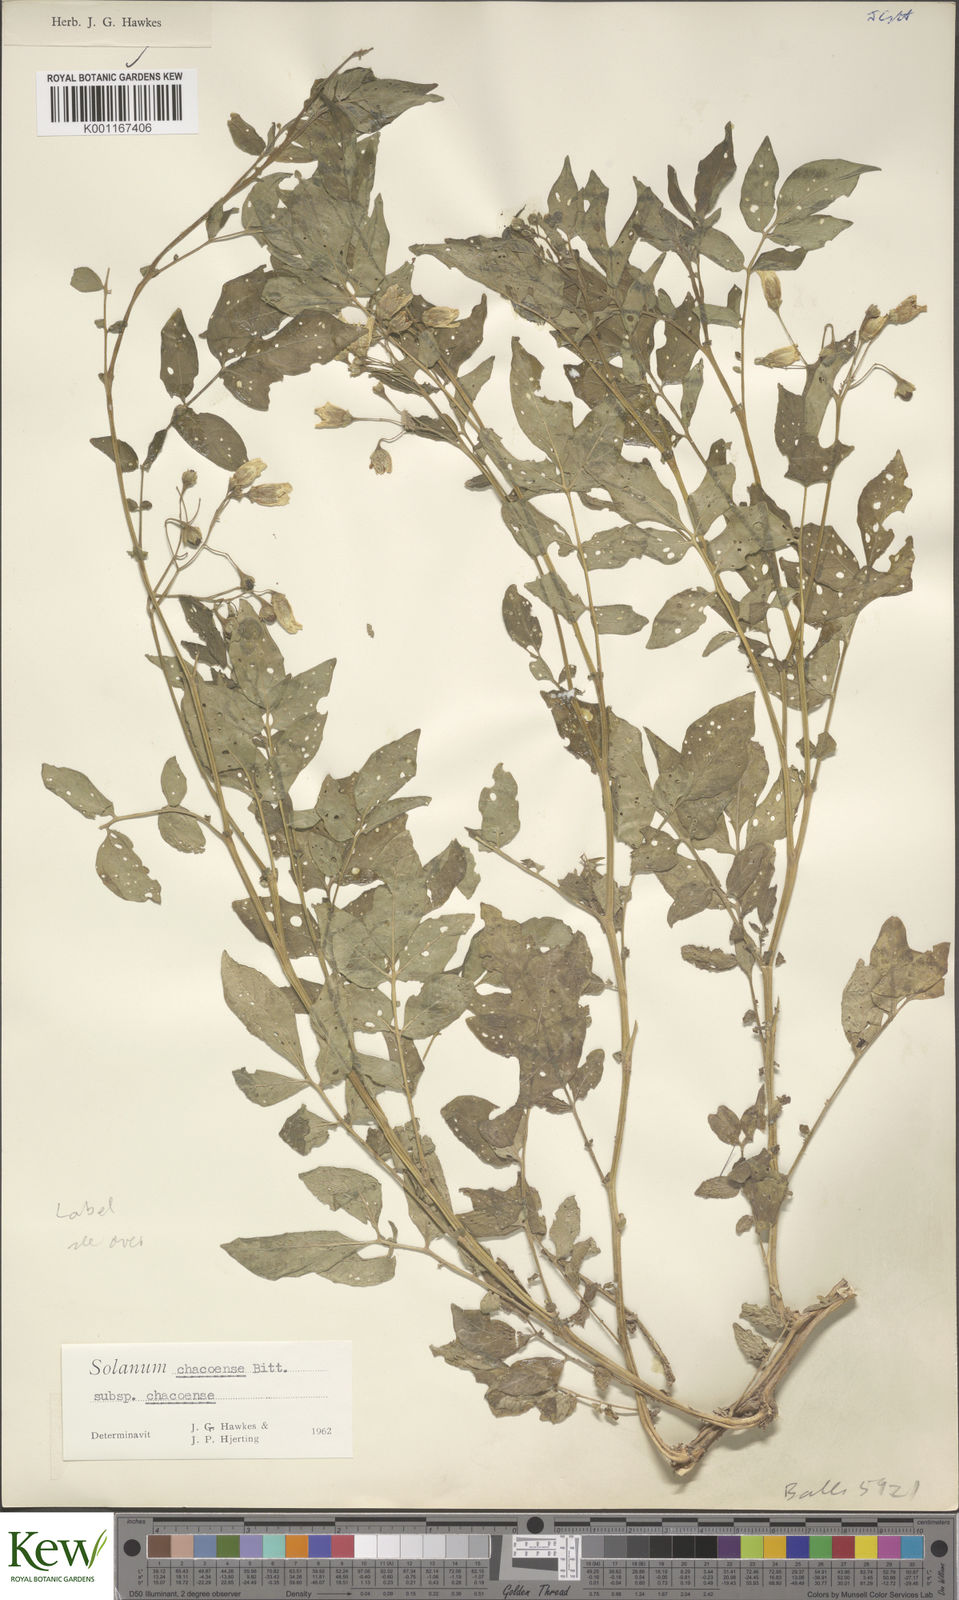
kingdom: Plantae
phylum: Tracheophyta
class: Magnoliopsida
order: Solanales
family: Solanaceae
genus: Solanum
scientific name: Solanum chacoense
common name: Chaco potato
